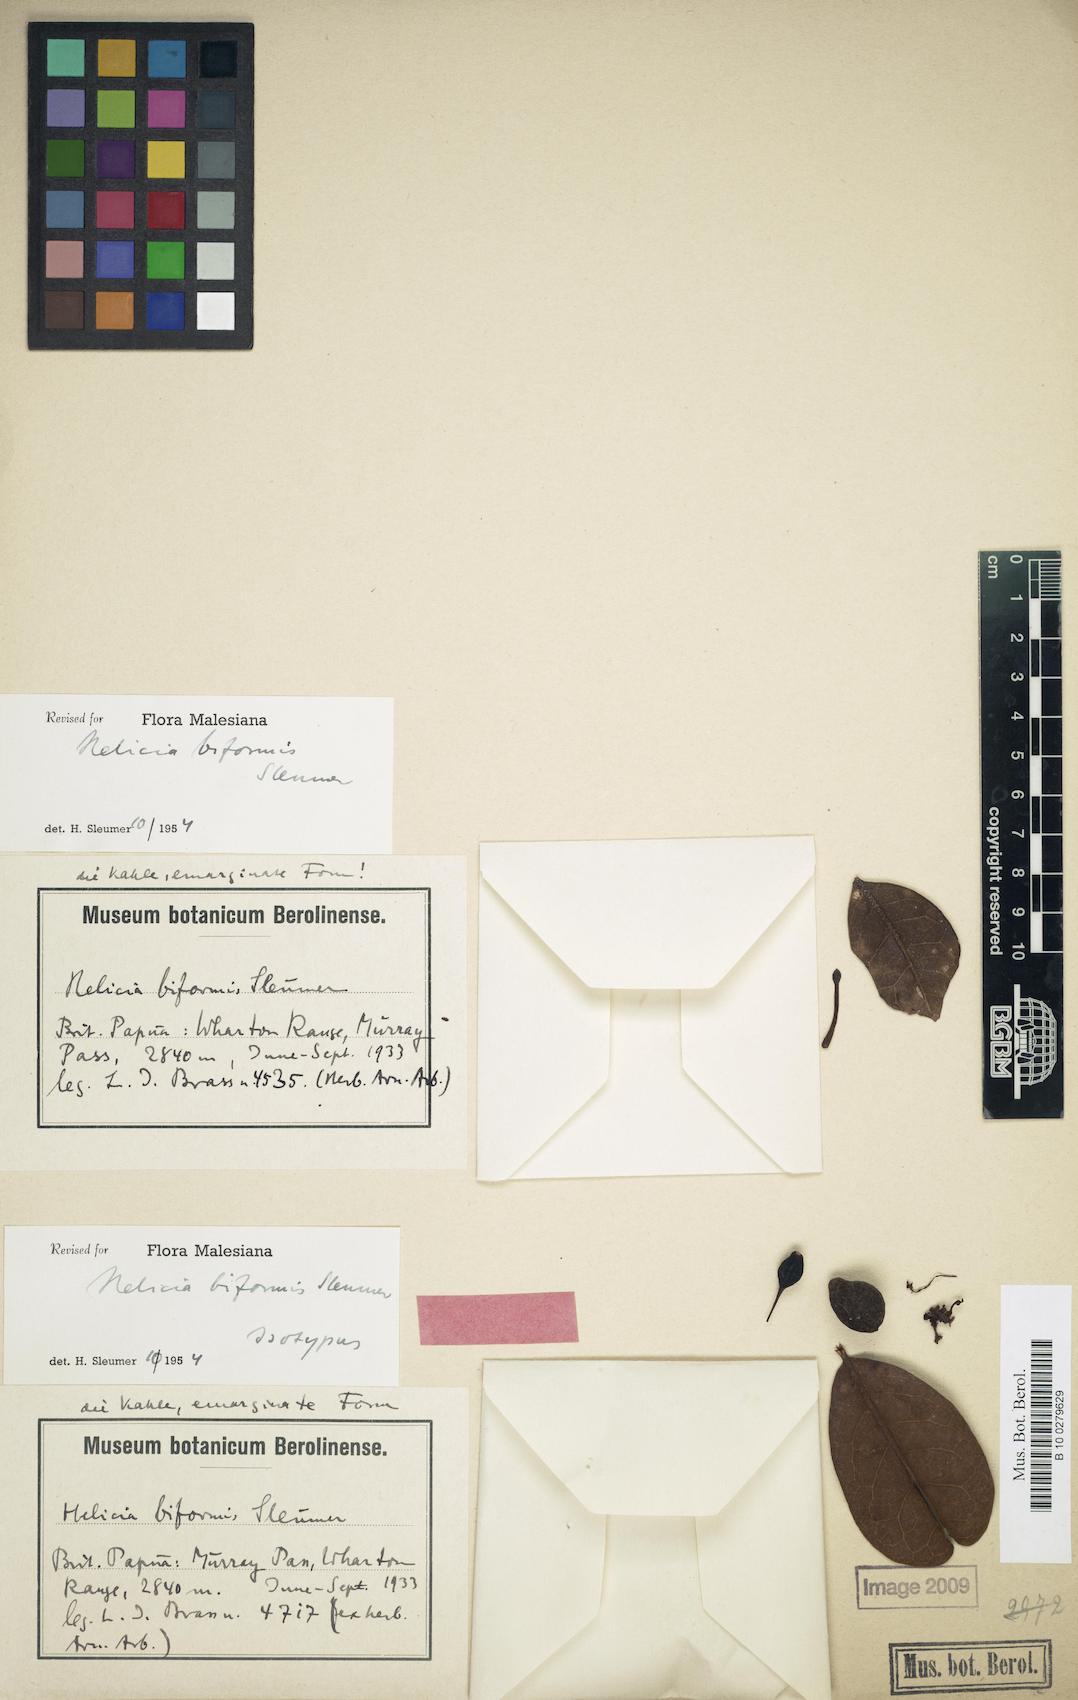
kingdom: Plantae
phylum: Tracheophyta
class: Magnoliopsida
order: Proteales
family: Proteaceae
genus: Helicia
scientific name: Helicia hypoglauca
